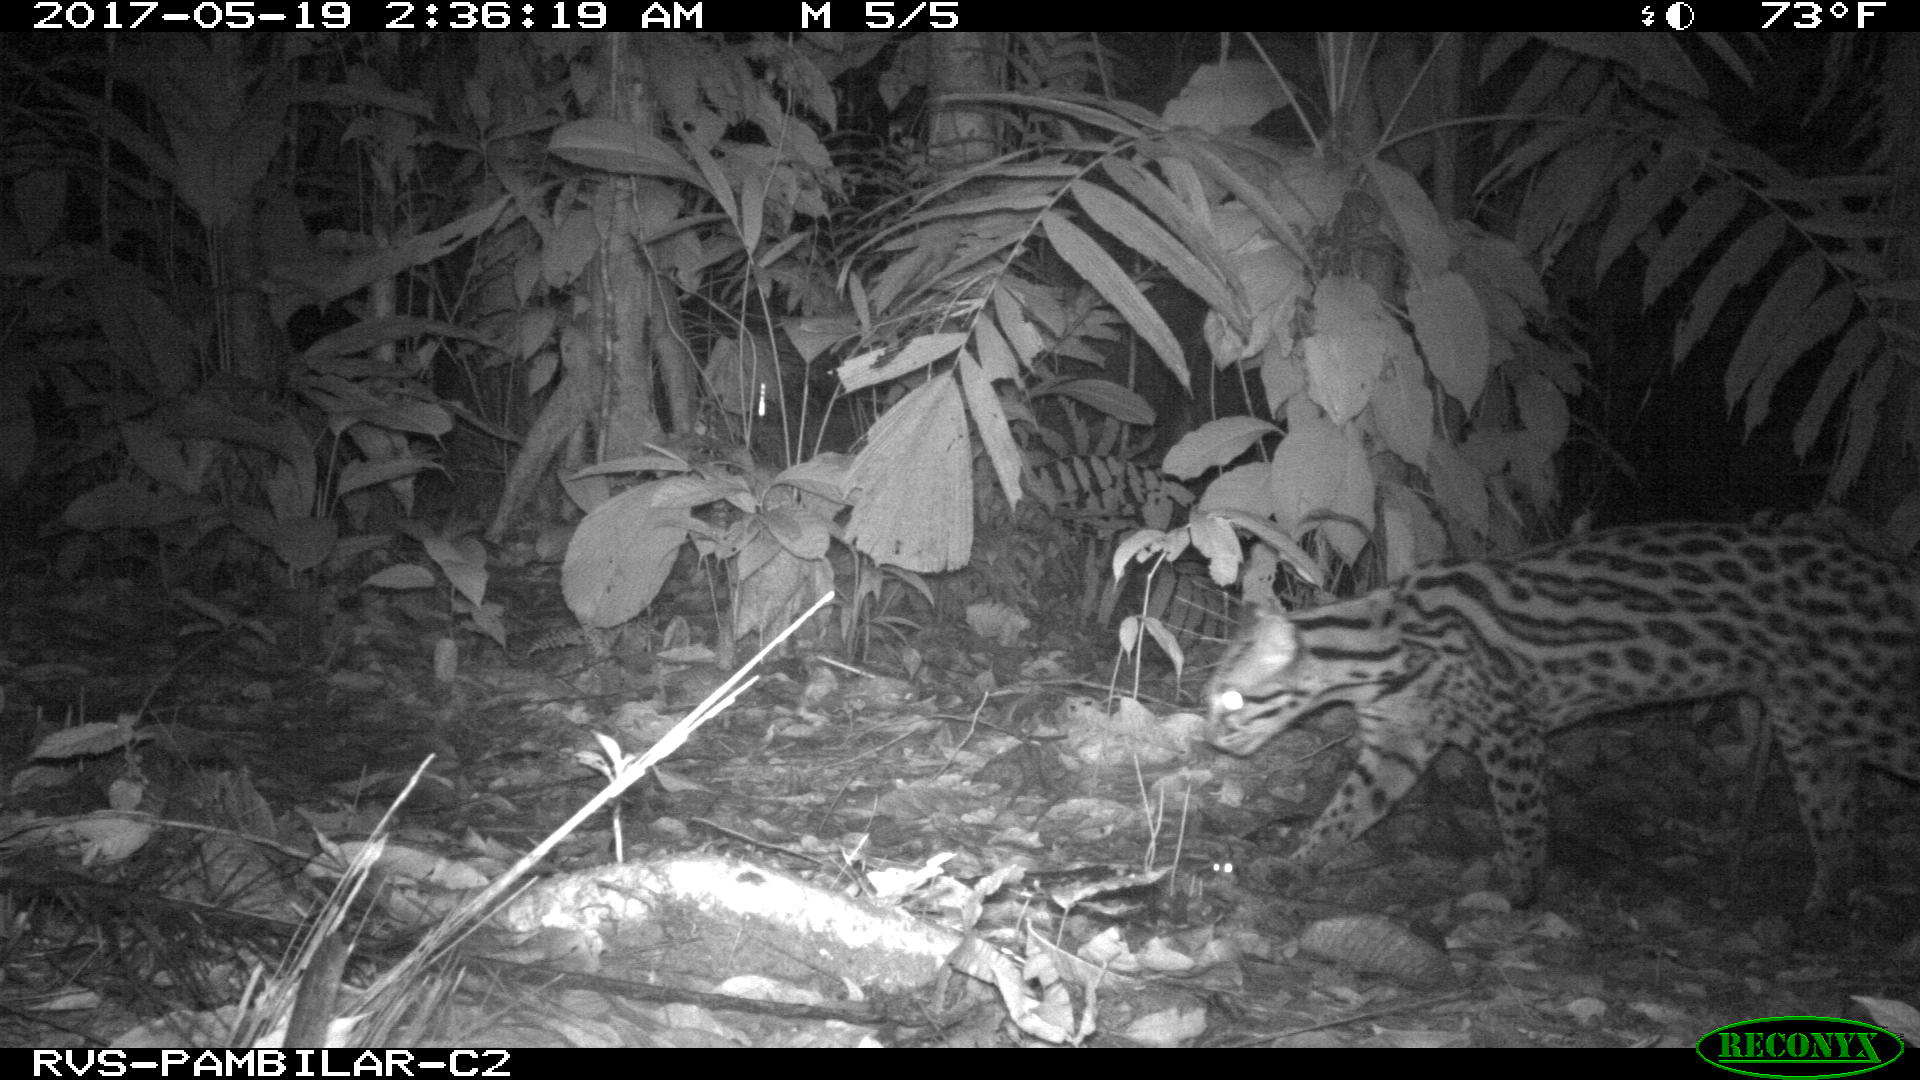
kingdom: Animalia
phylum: Chordata
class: Mammalia
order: Carnivora
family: Felidae
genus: Leopardus
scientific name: Leopardus pardalis
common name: Ocelot
